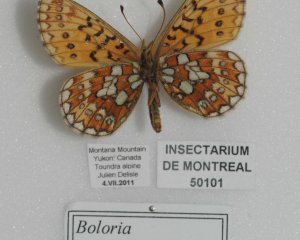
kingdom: Animalia
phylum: Arthropoda
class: Insecta
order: Lepidoptera
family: Nymphalidae
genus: Boloria
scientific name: Boloria eunomia
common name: Bog Fritillary
